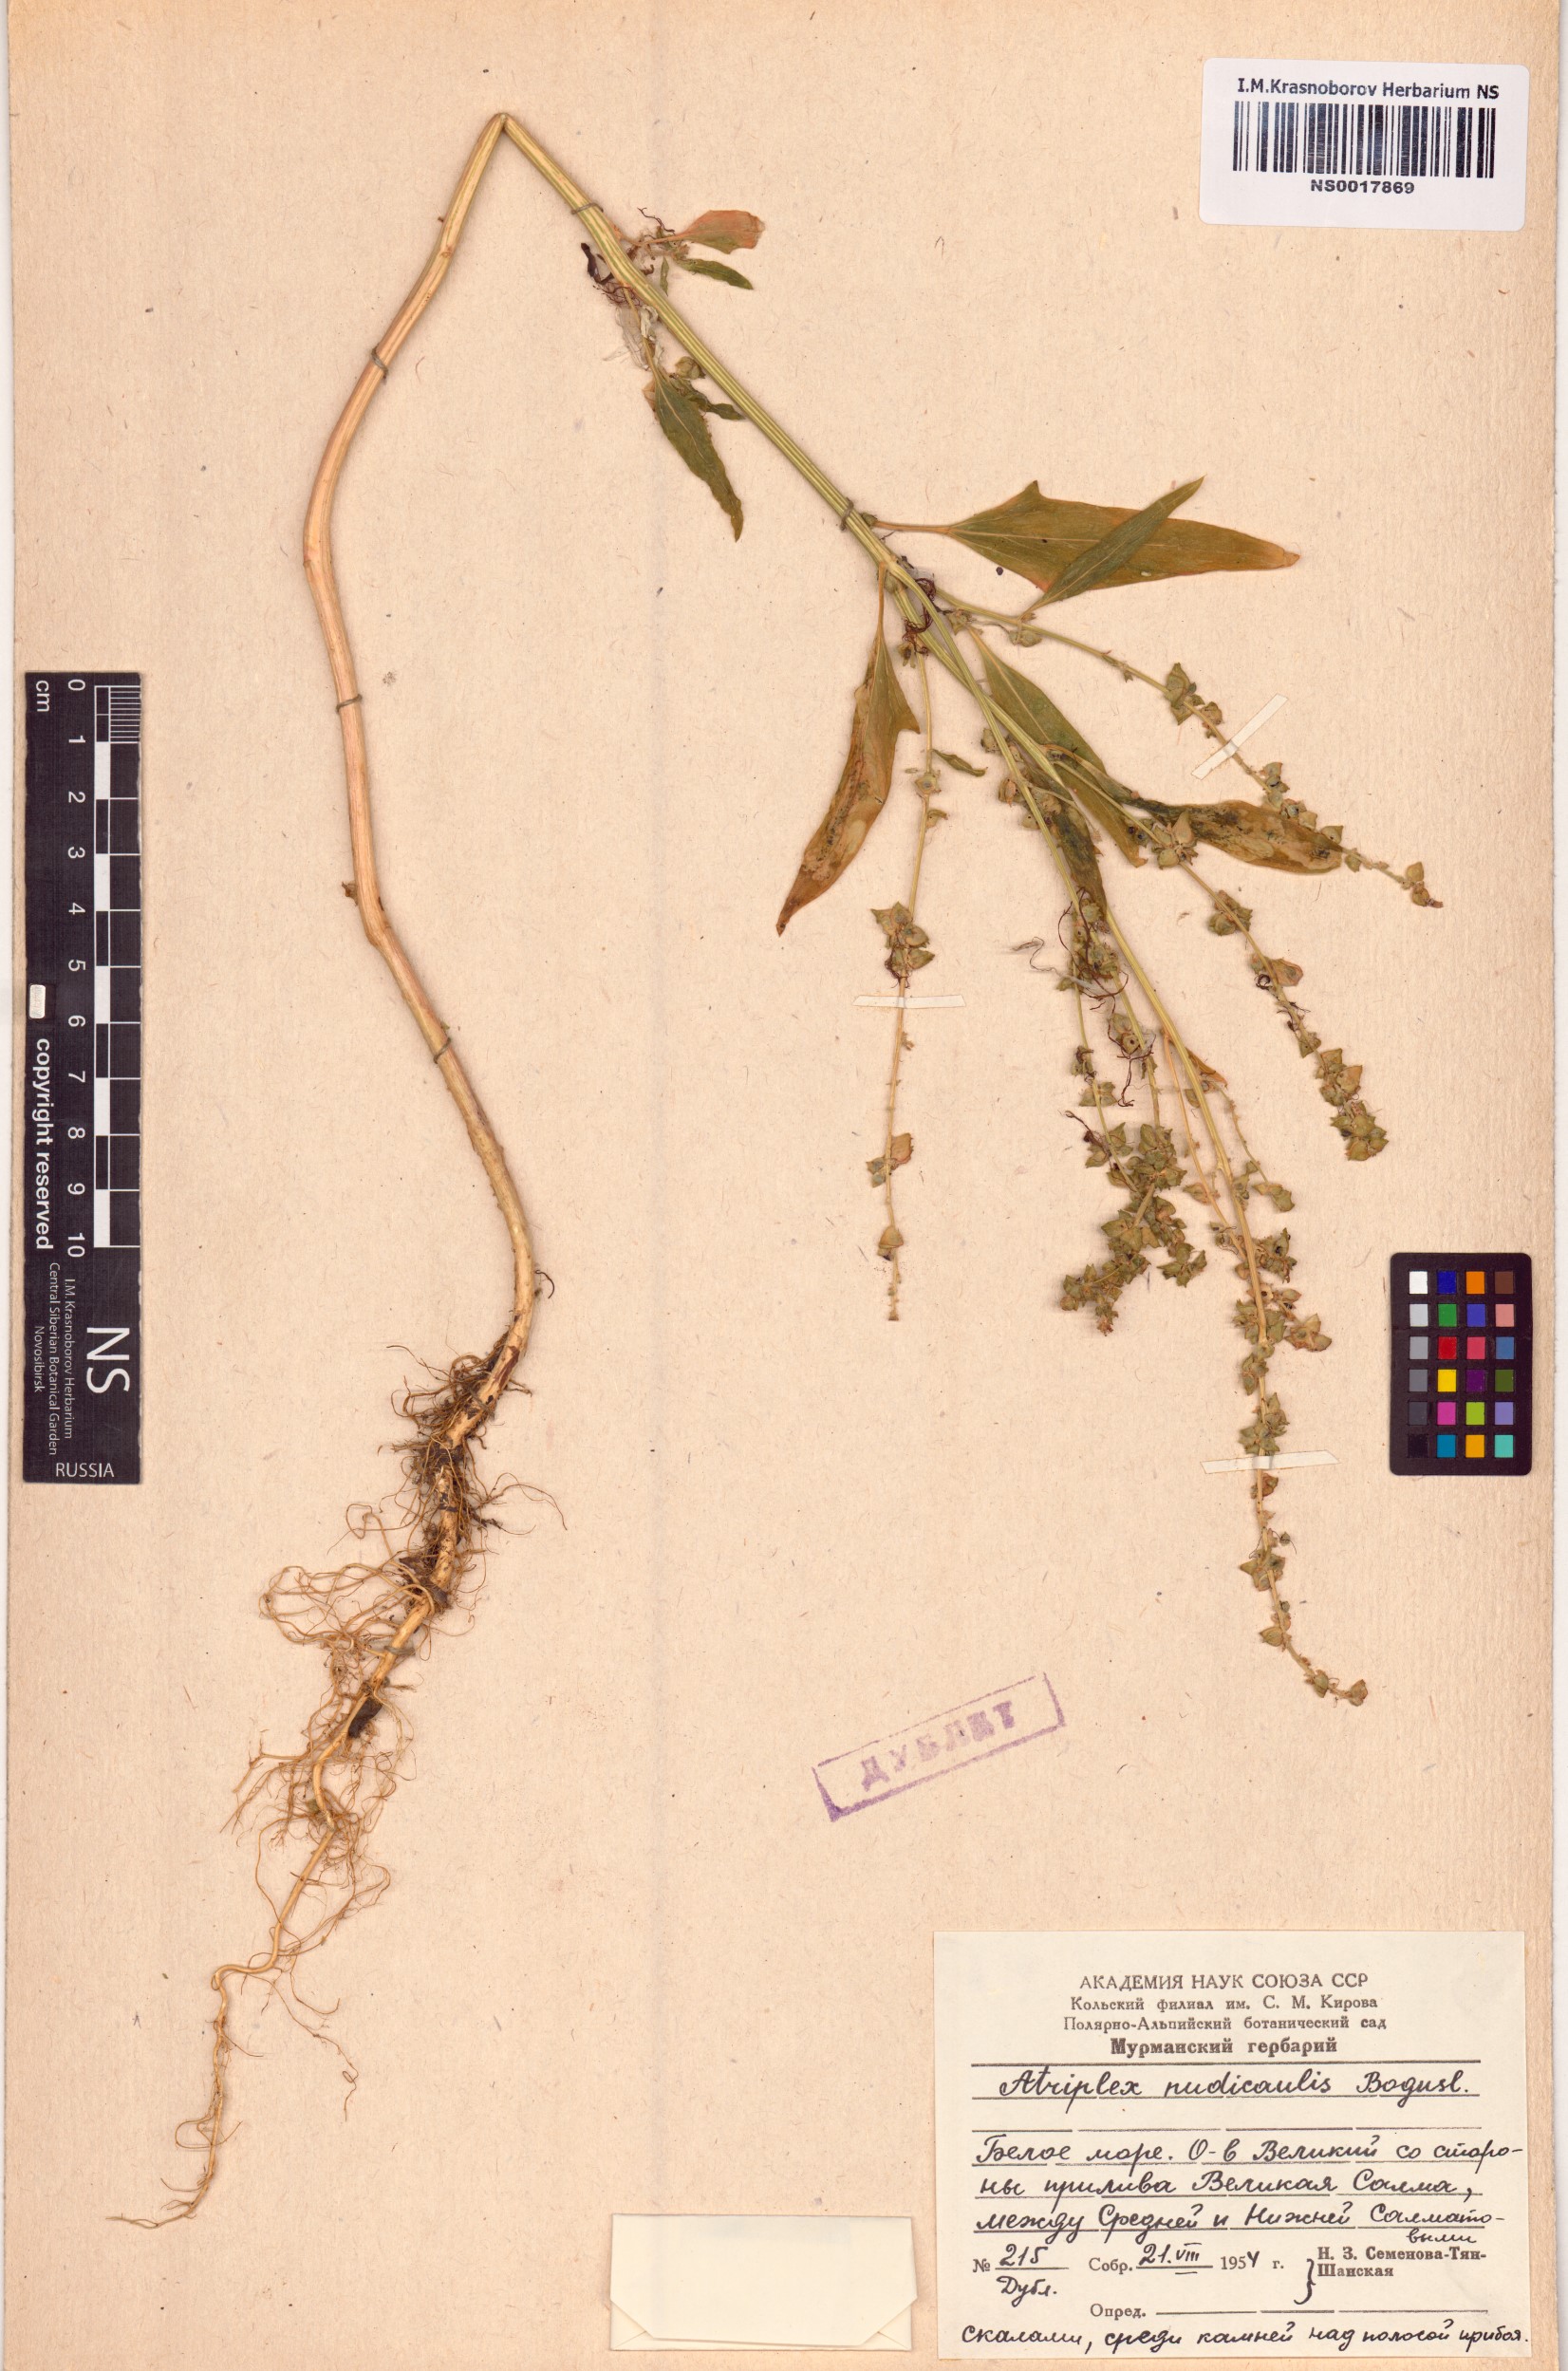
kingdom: Plantae
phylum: Tracheophyta
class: Magnoliopsida
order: Caryophyllales
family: Amaranthaceae
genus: Atriplex
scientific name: Atriplex nudicaulis
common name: Baltic orache
